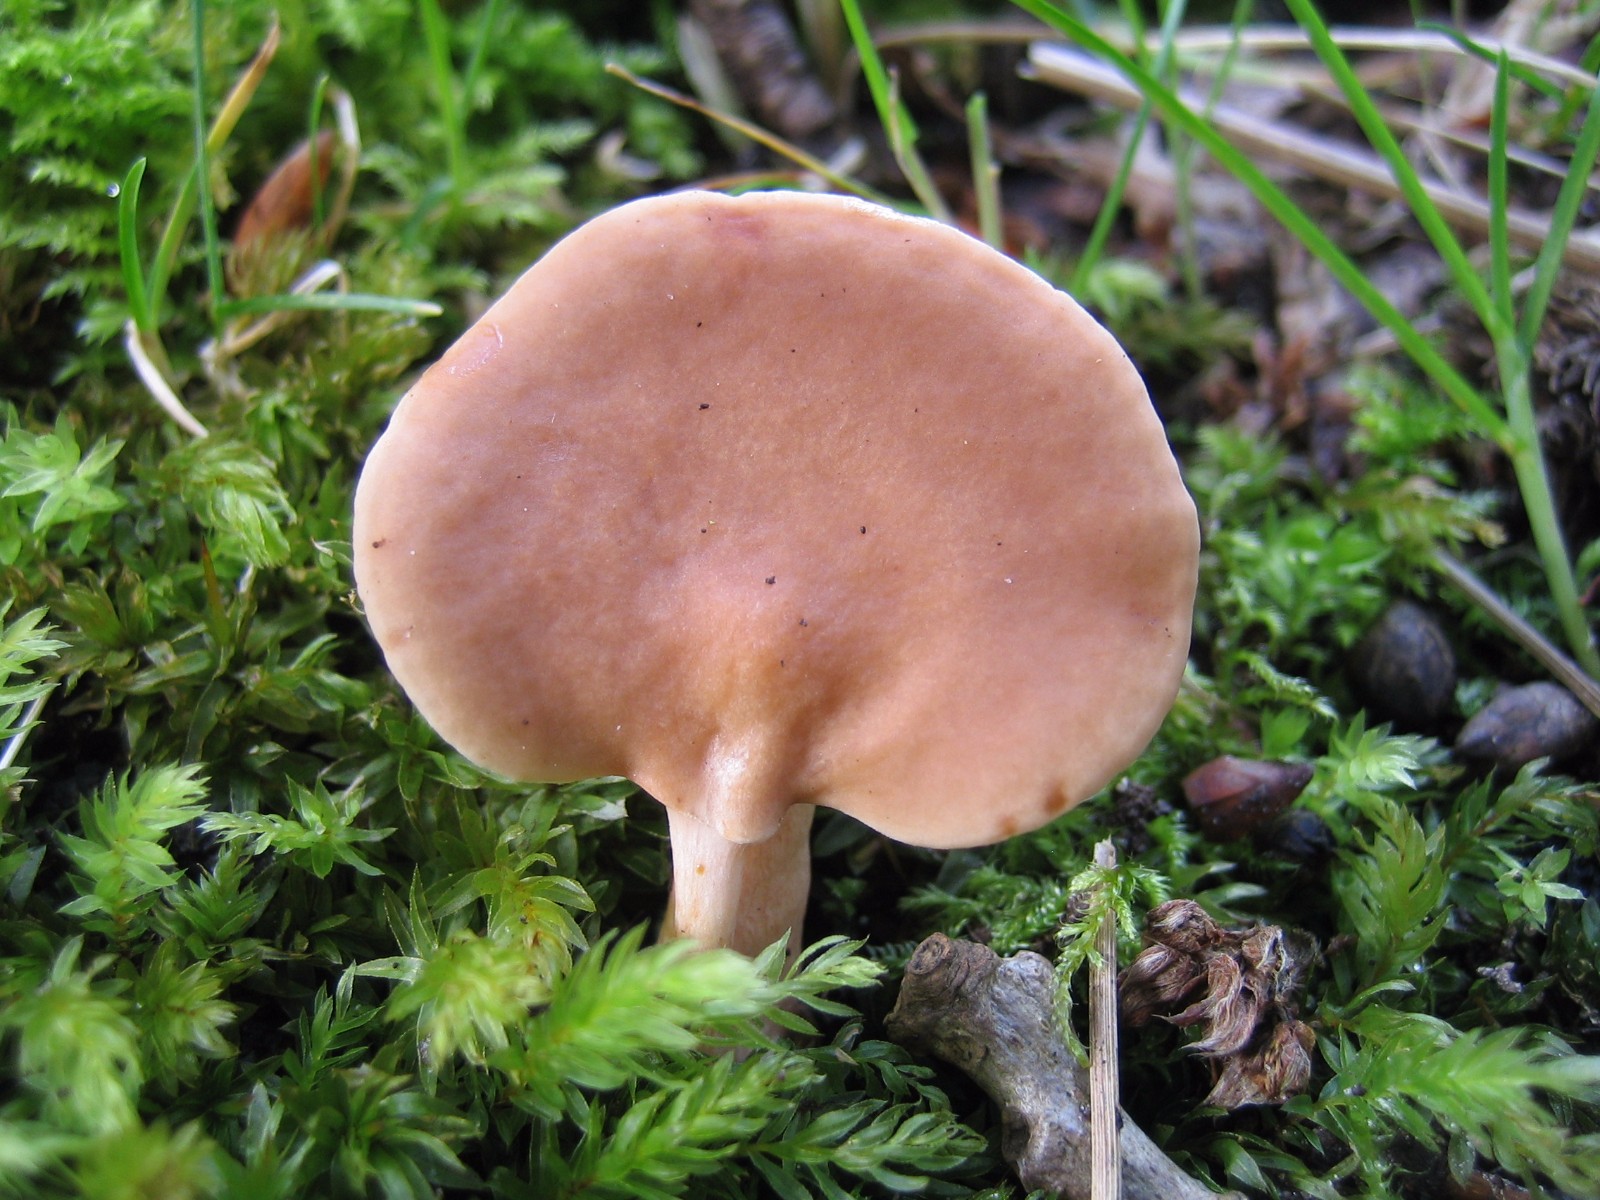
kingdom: Fungi
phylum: Basidiomycota
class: Agaricomycetes
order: Russulales
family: Russulaceae
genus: Lactarius
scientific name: Lactarius subdulcis
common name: sødlig mælkehat
